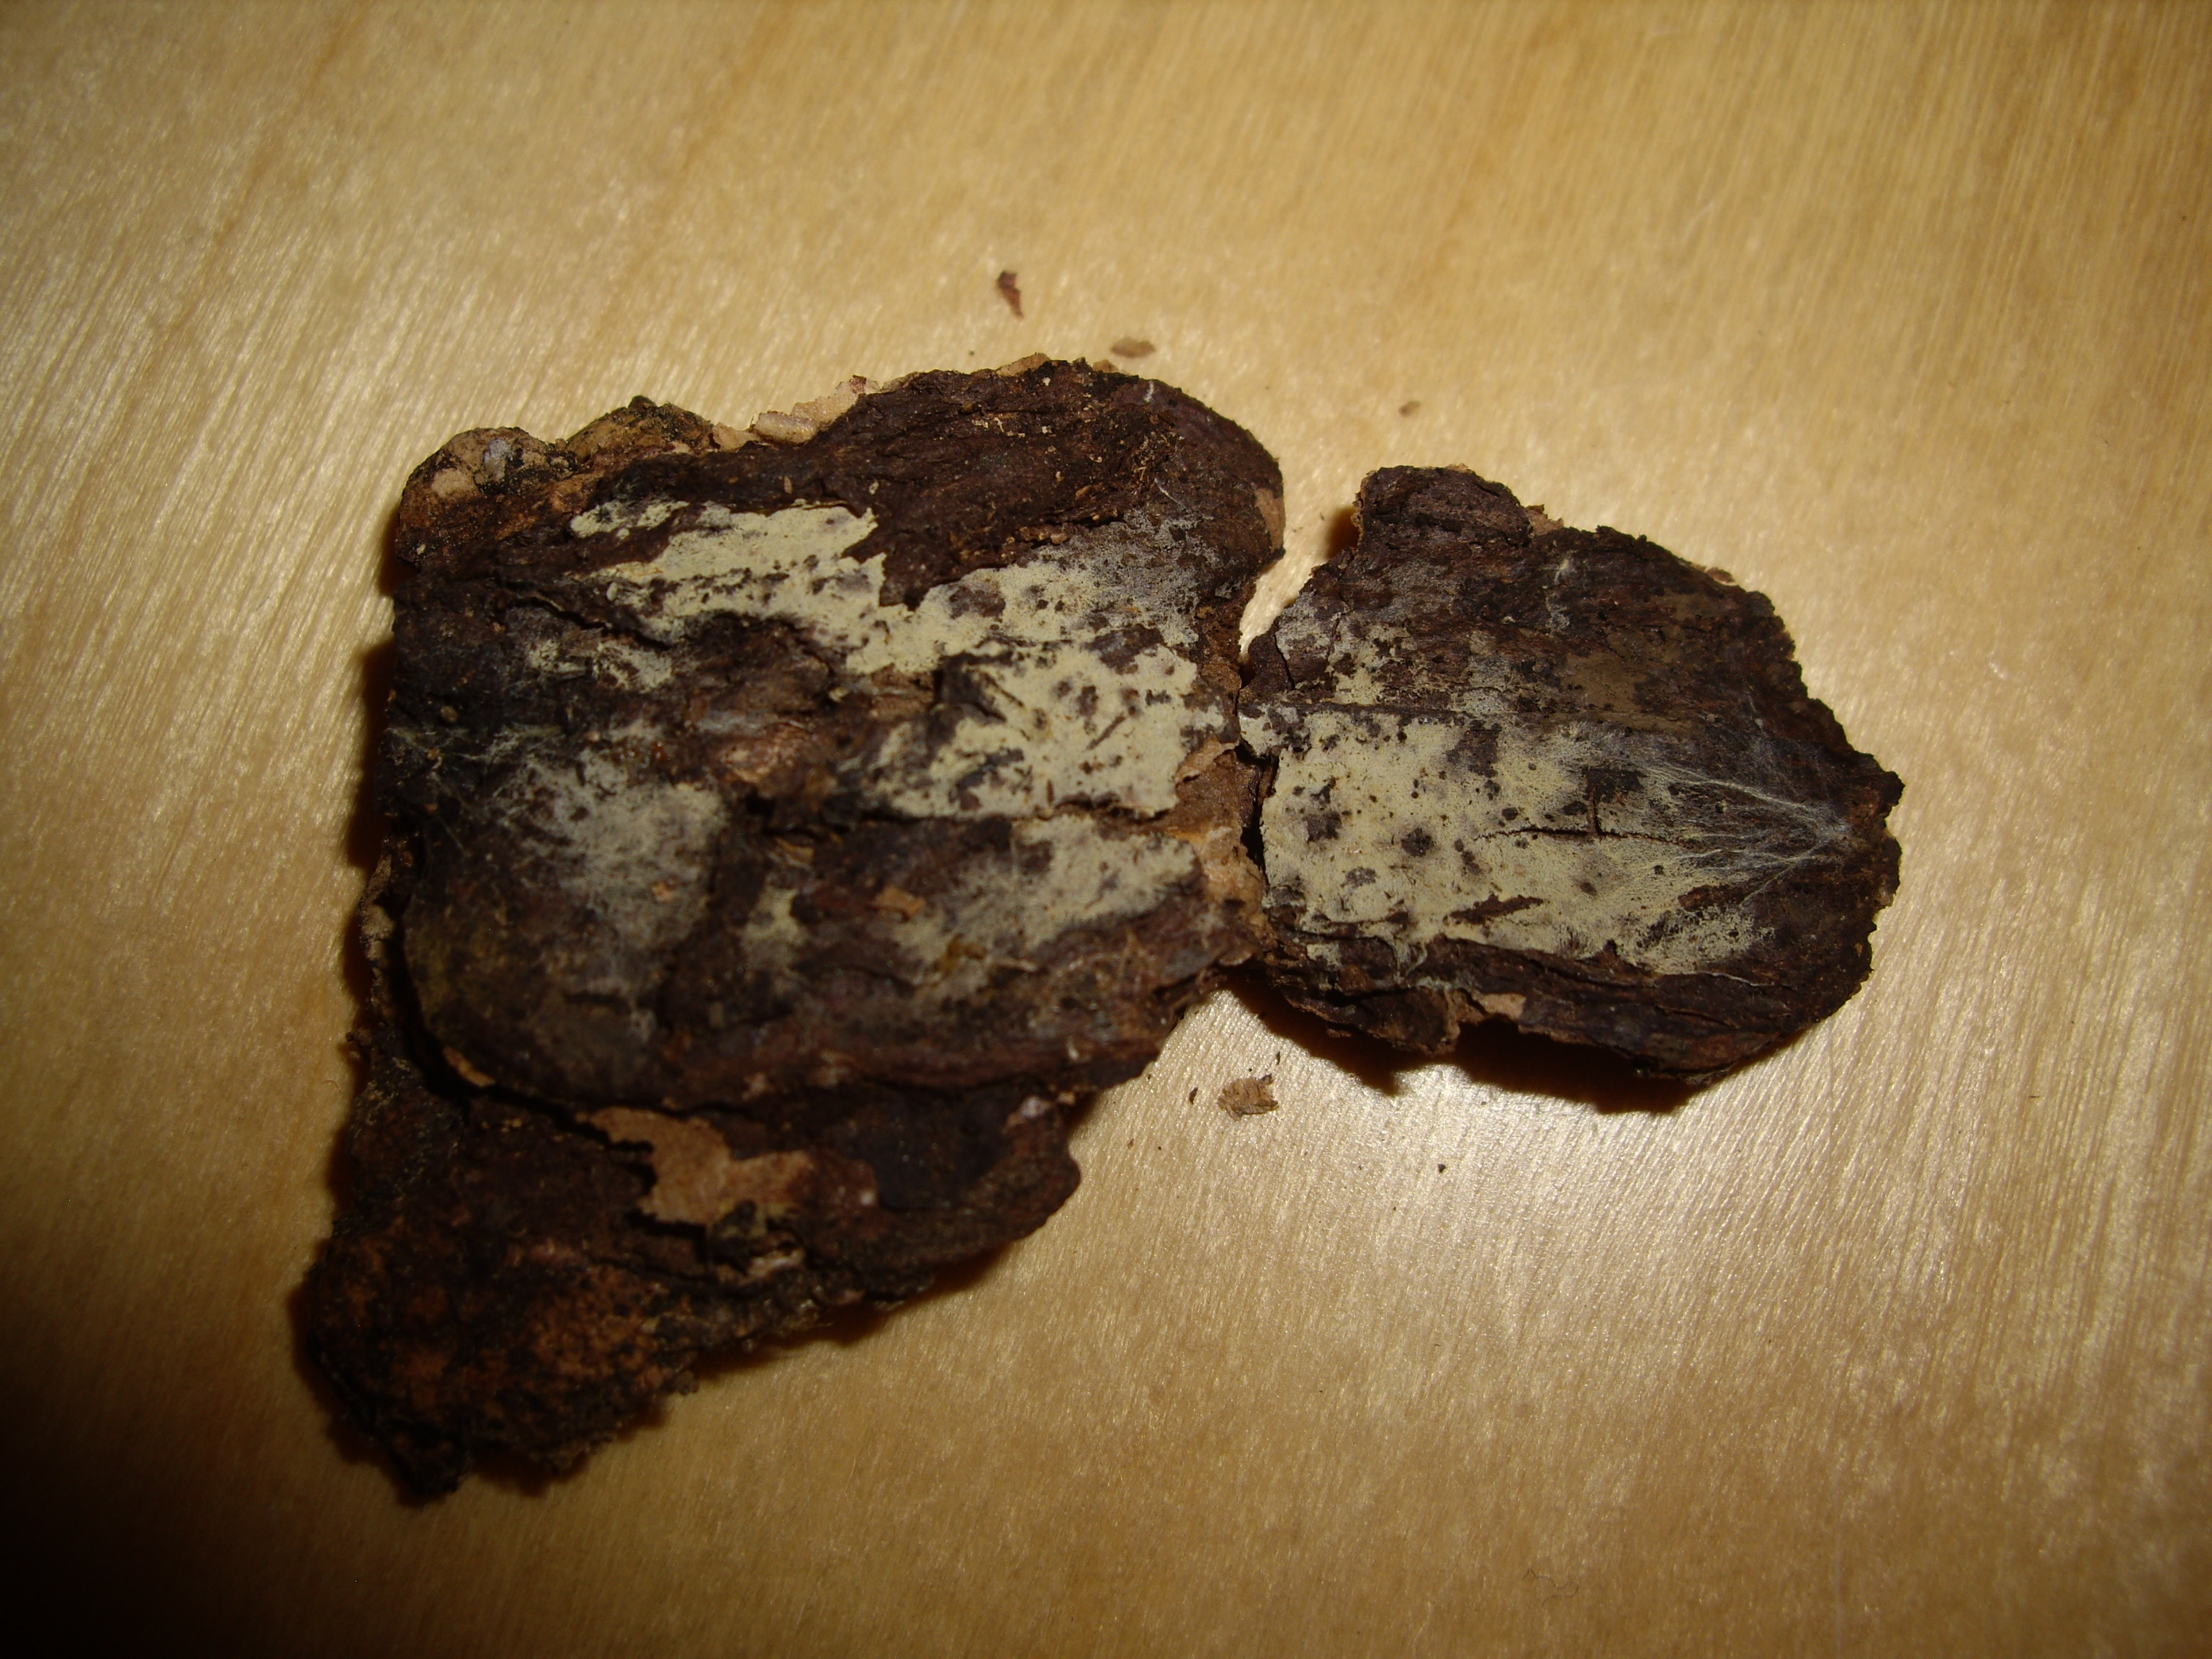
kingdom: Fungi
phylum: Basidiomycota
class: Agaricomycetes
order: Cantharellales
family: Hydnaceae
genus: Sistotrema
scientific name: Sistotrema octosporum
